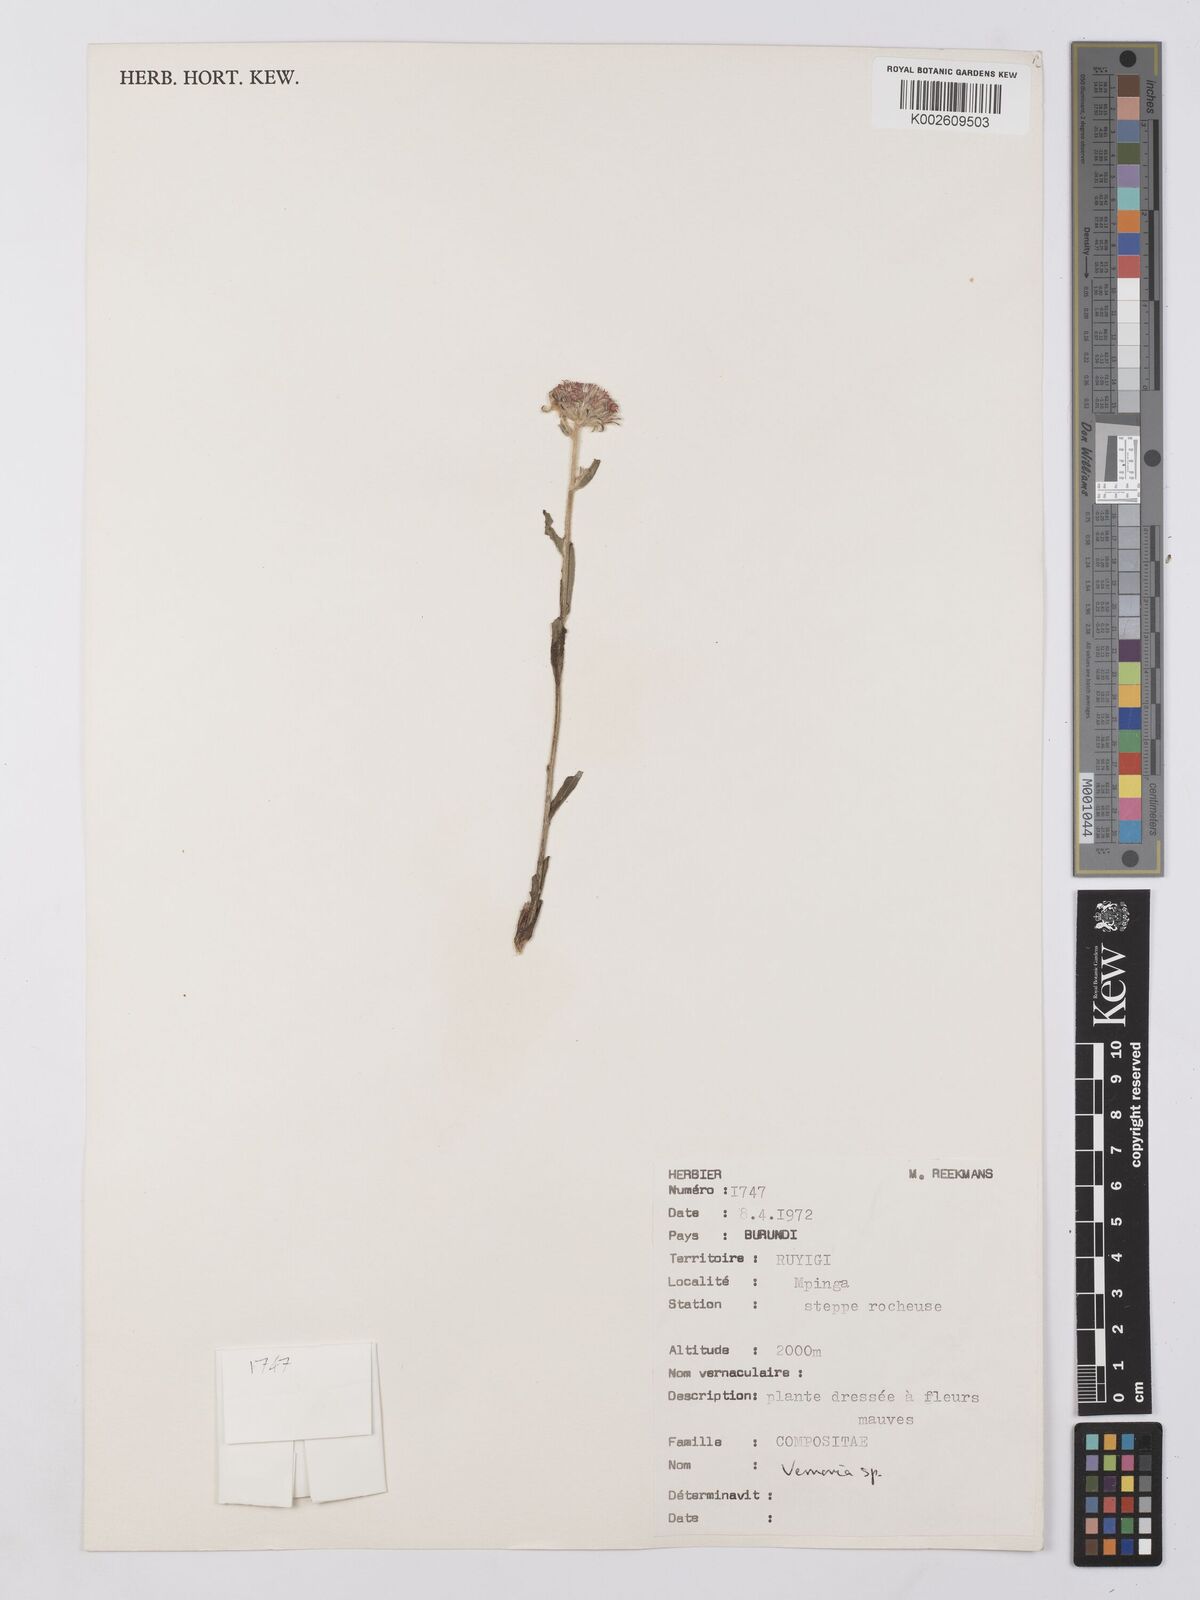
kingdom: Plantae
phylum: Tracheophyta
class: Magnoliopsida
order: Asterales
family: Asteraceae
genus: Vernonia
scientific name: Vernonia
